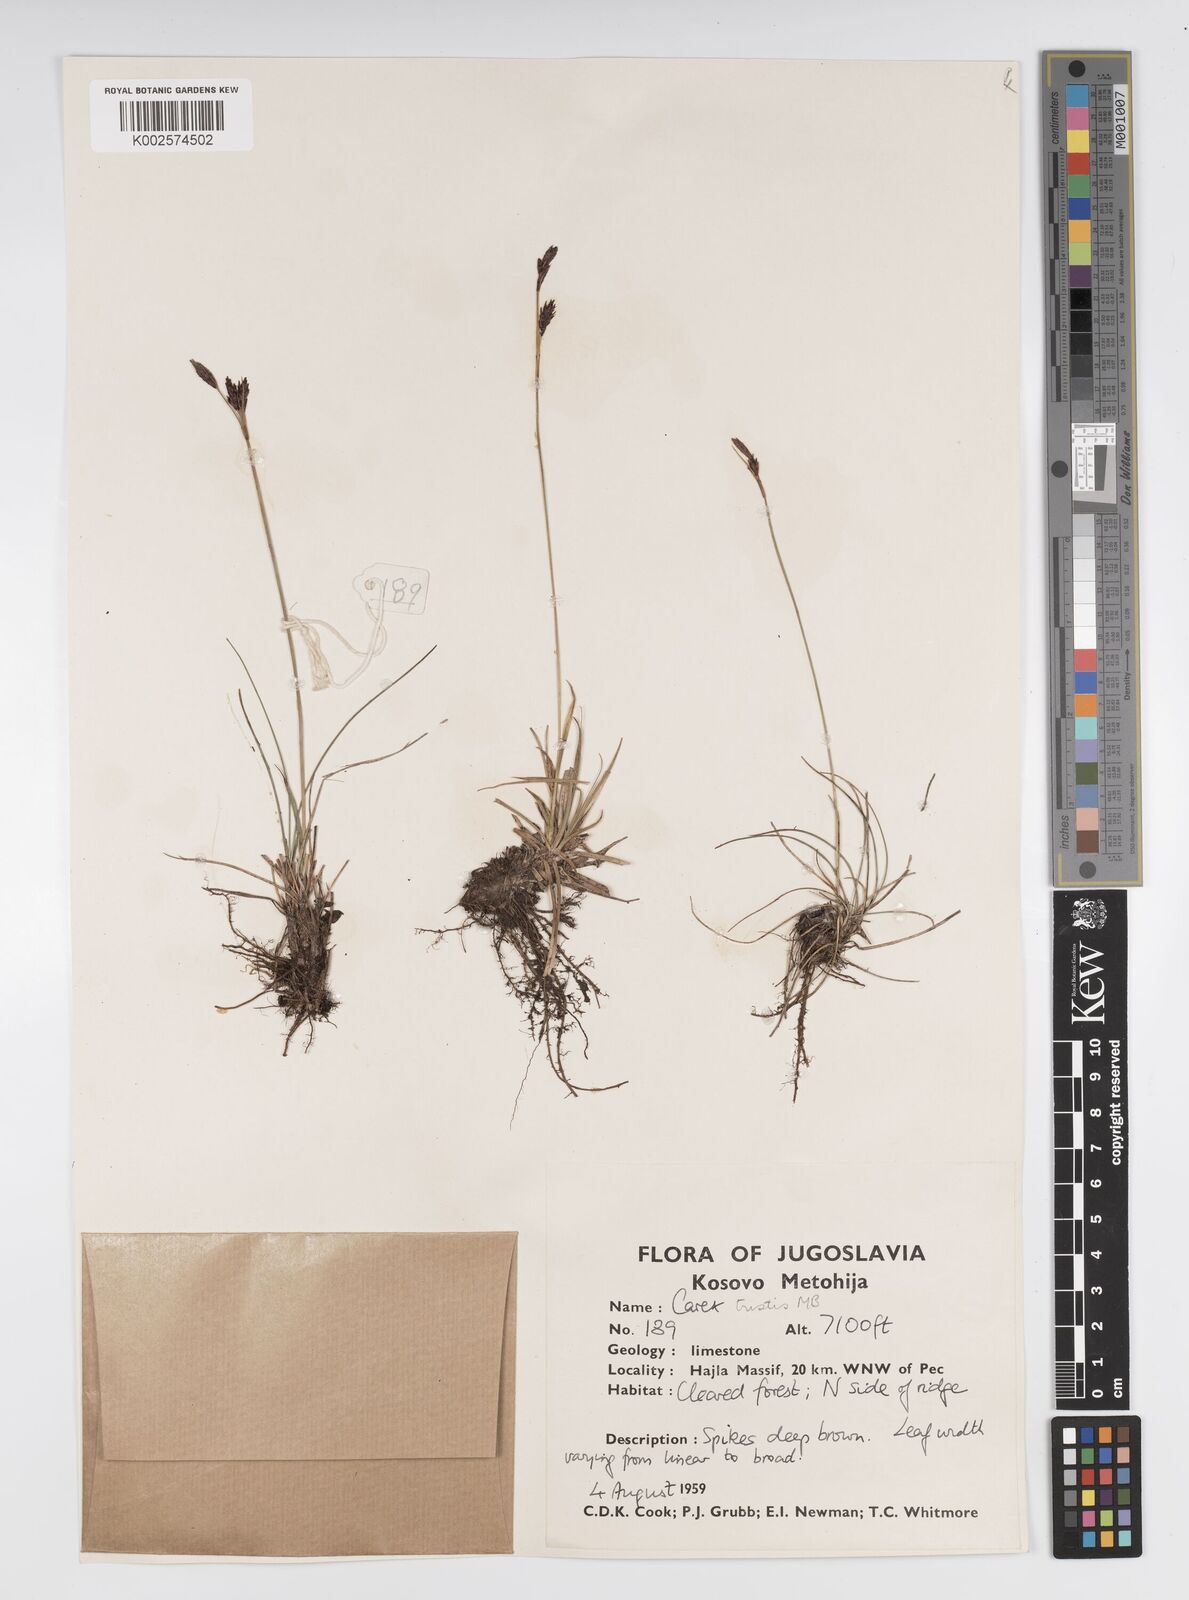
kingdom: Plantae
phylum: Tracheophyta
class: Liliopsida
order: Poales
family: Cyperaceae
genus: Carex
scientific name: Carex sempervirens
